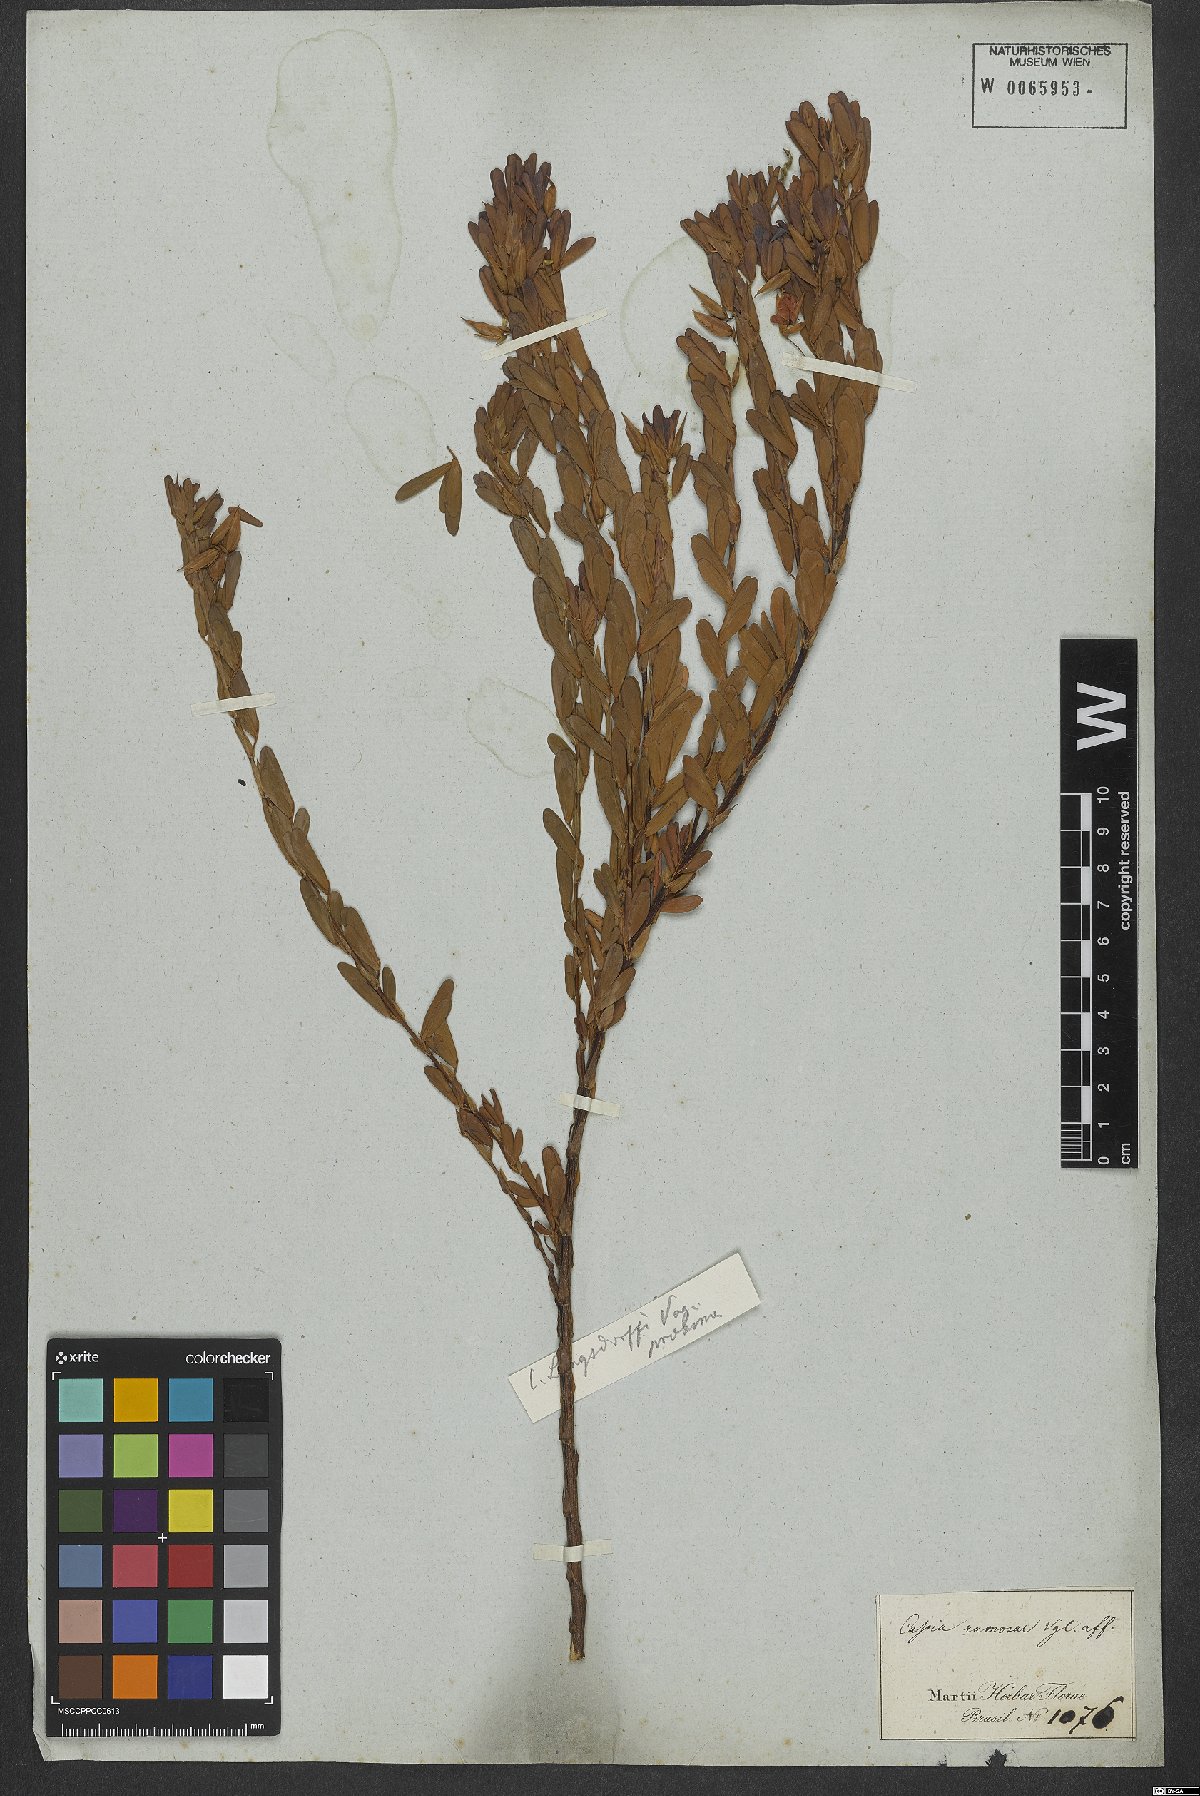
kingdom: Plantae
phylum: Tracheophyta
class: Magnoliopsida
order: Fabales
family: Fabaceae
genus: Chamaecrista
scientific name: Chamaecrista langsdorffii
